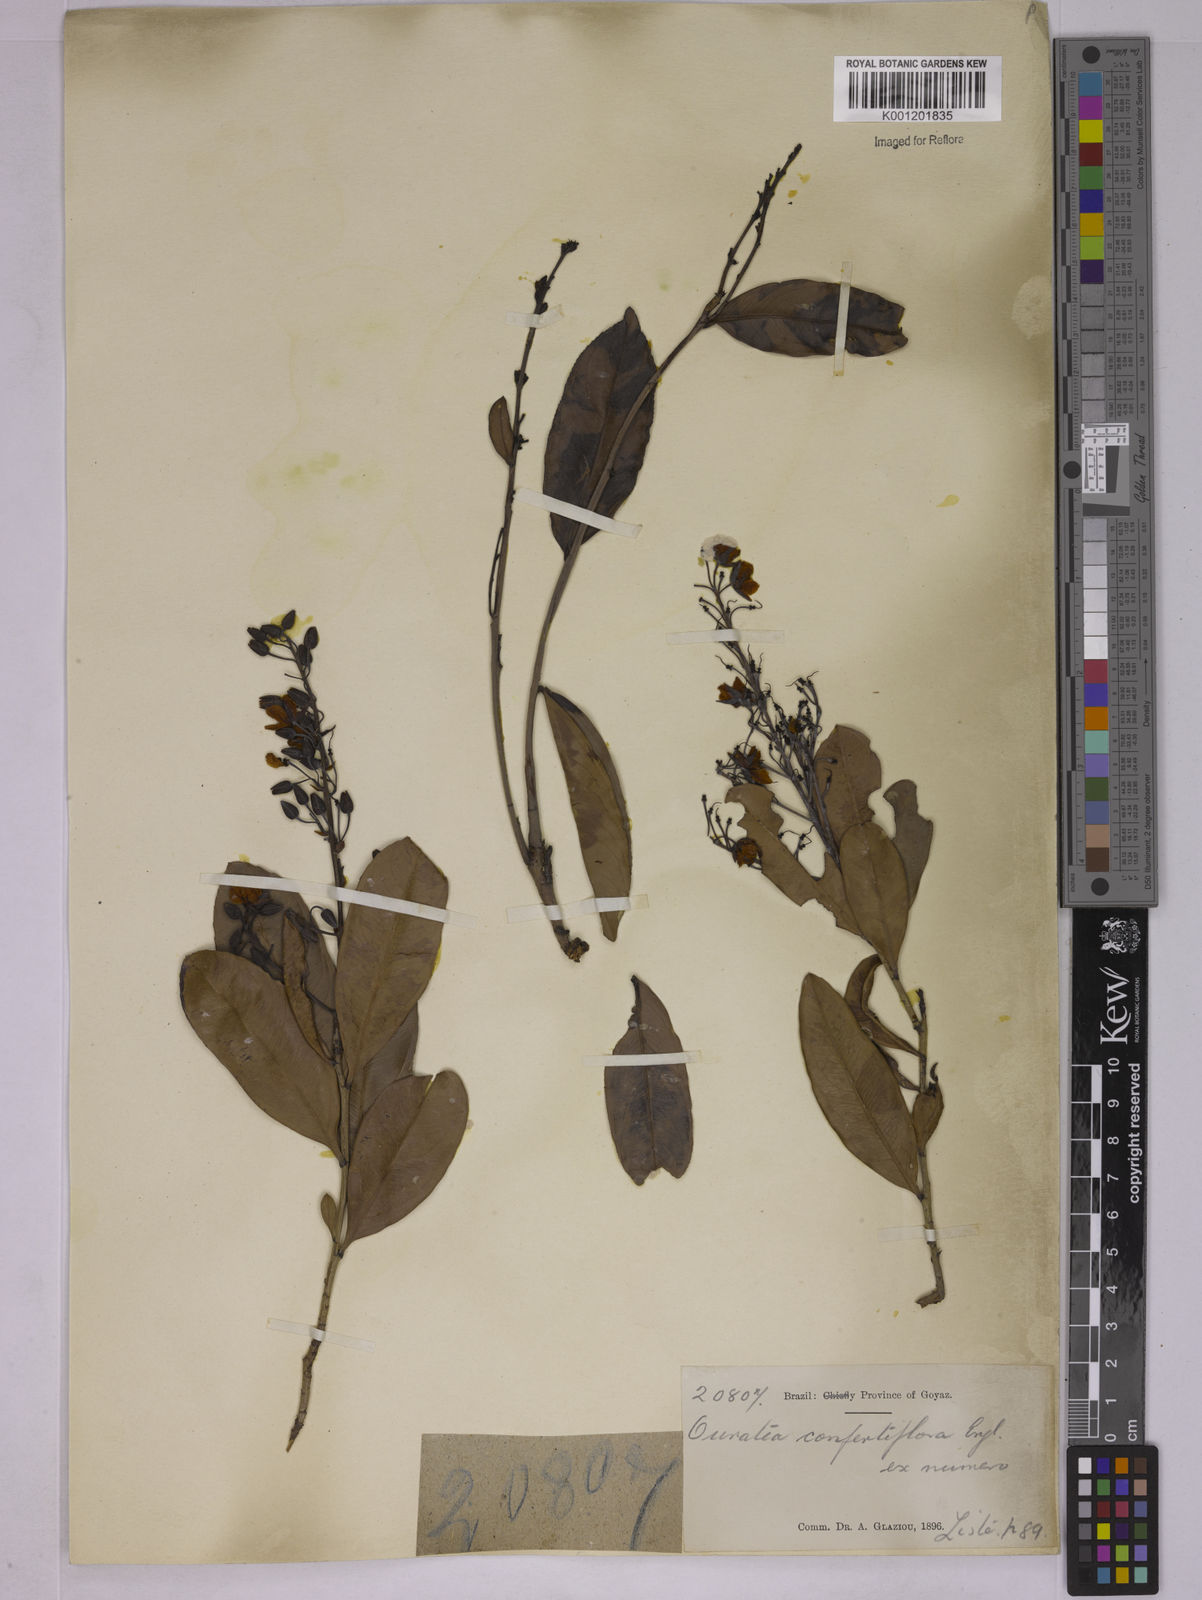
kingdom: Plantae
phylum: Tracheophyta
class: Magnoliopsida
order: Malpighiales
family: Ochnaceae
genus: Ouratea
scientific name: Ouratea confertiflora
